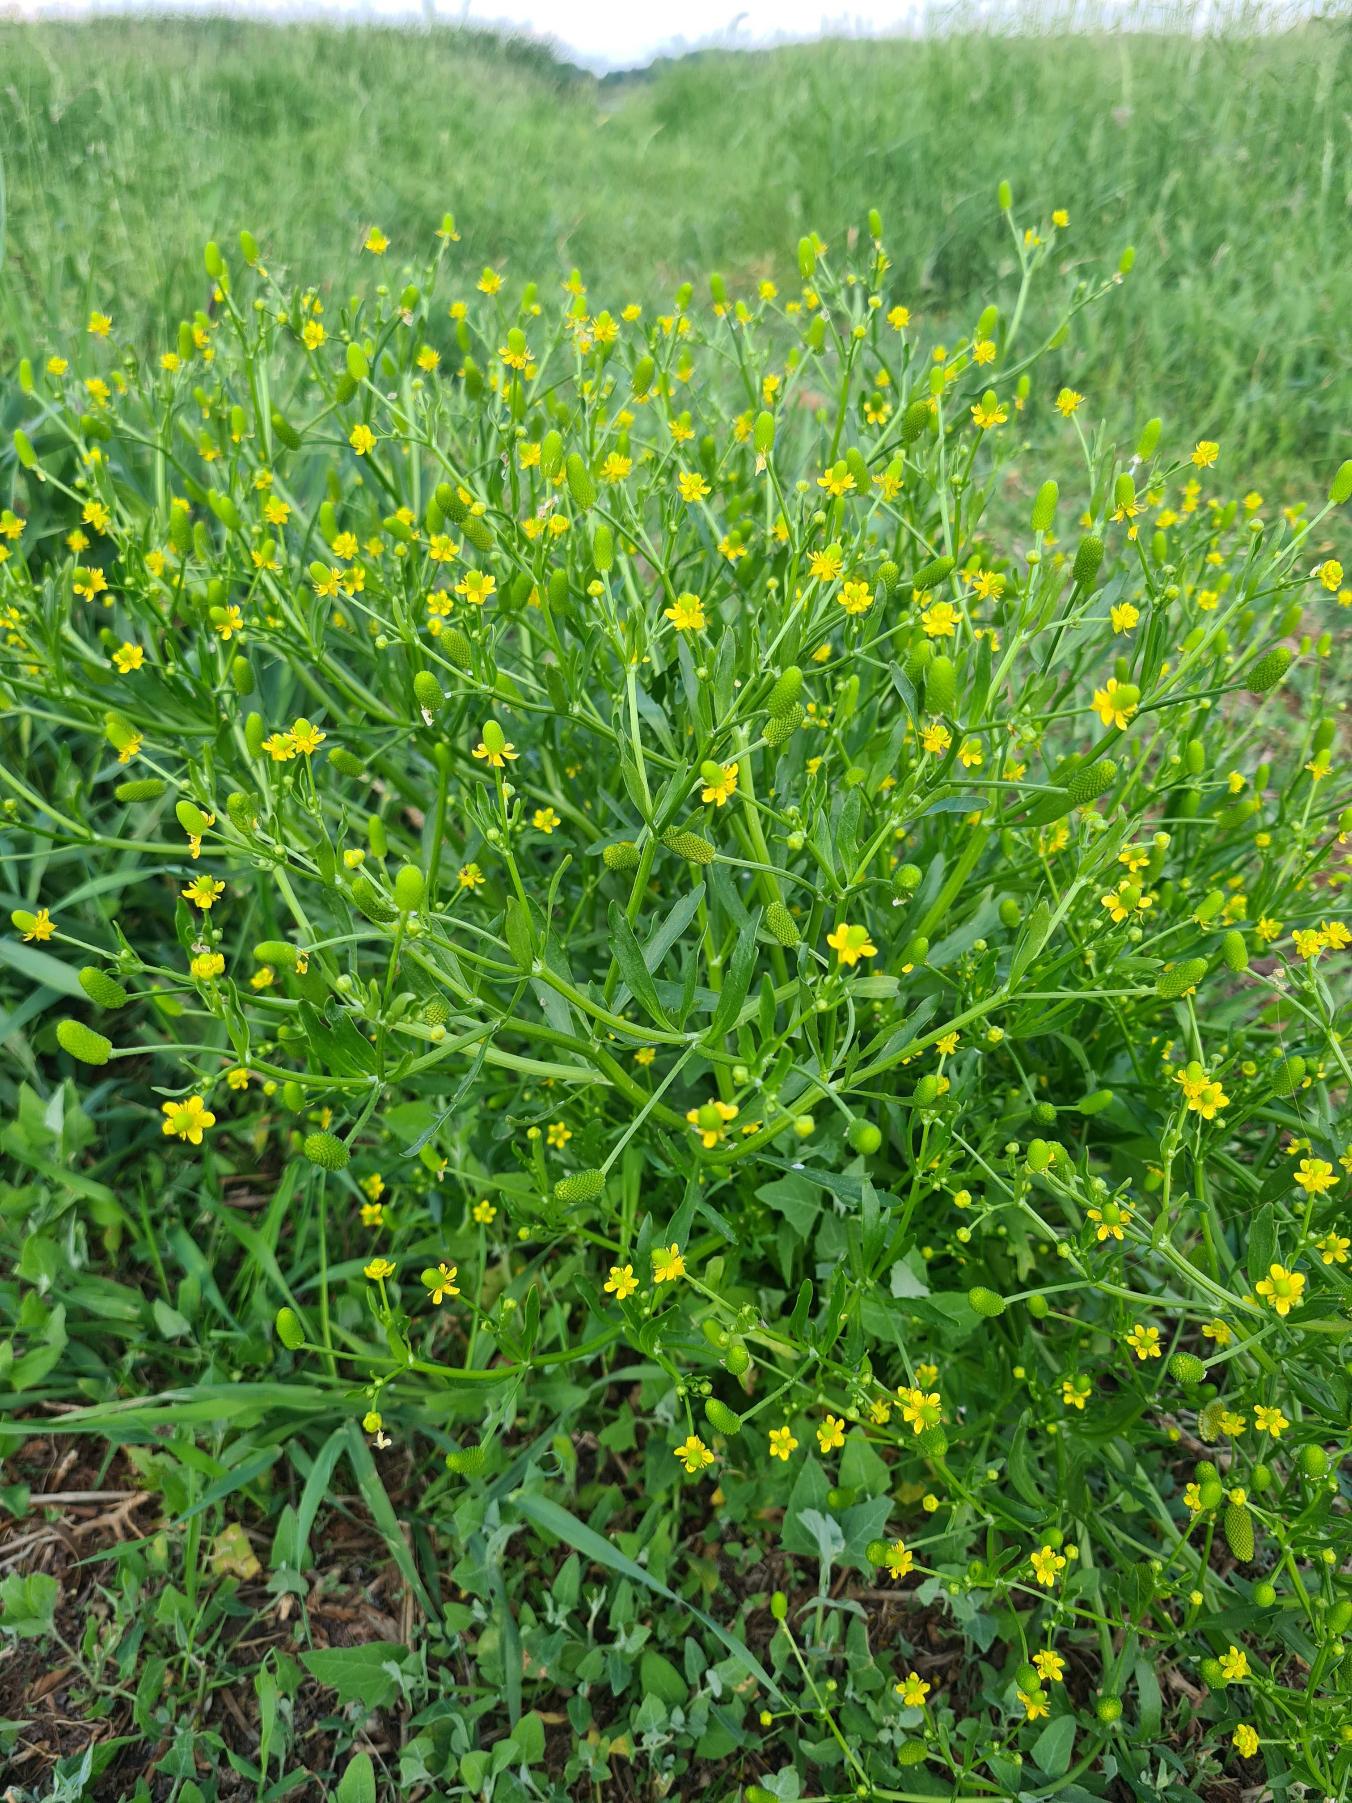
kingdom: Plantae
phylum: Tracheophyta
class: Magnoliopsida
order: Ranunculales
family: Ranunculaceae
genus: Ranunculus
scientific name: Ranunculus sceleratus
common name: Tigger-ranunkel
